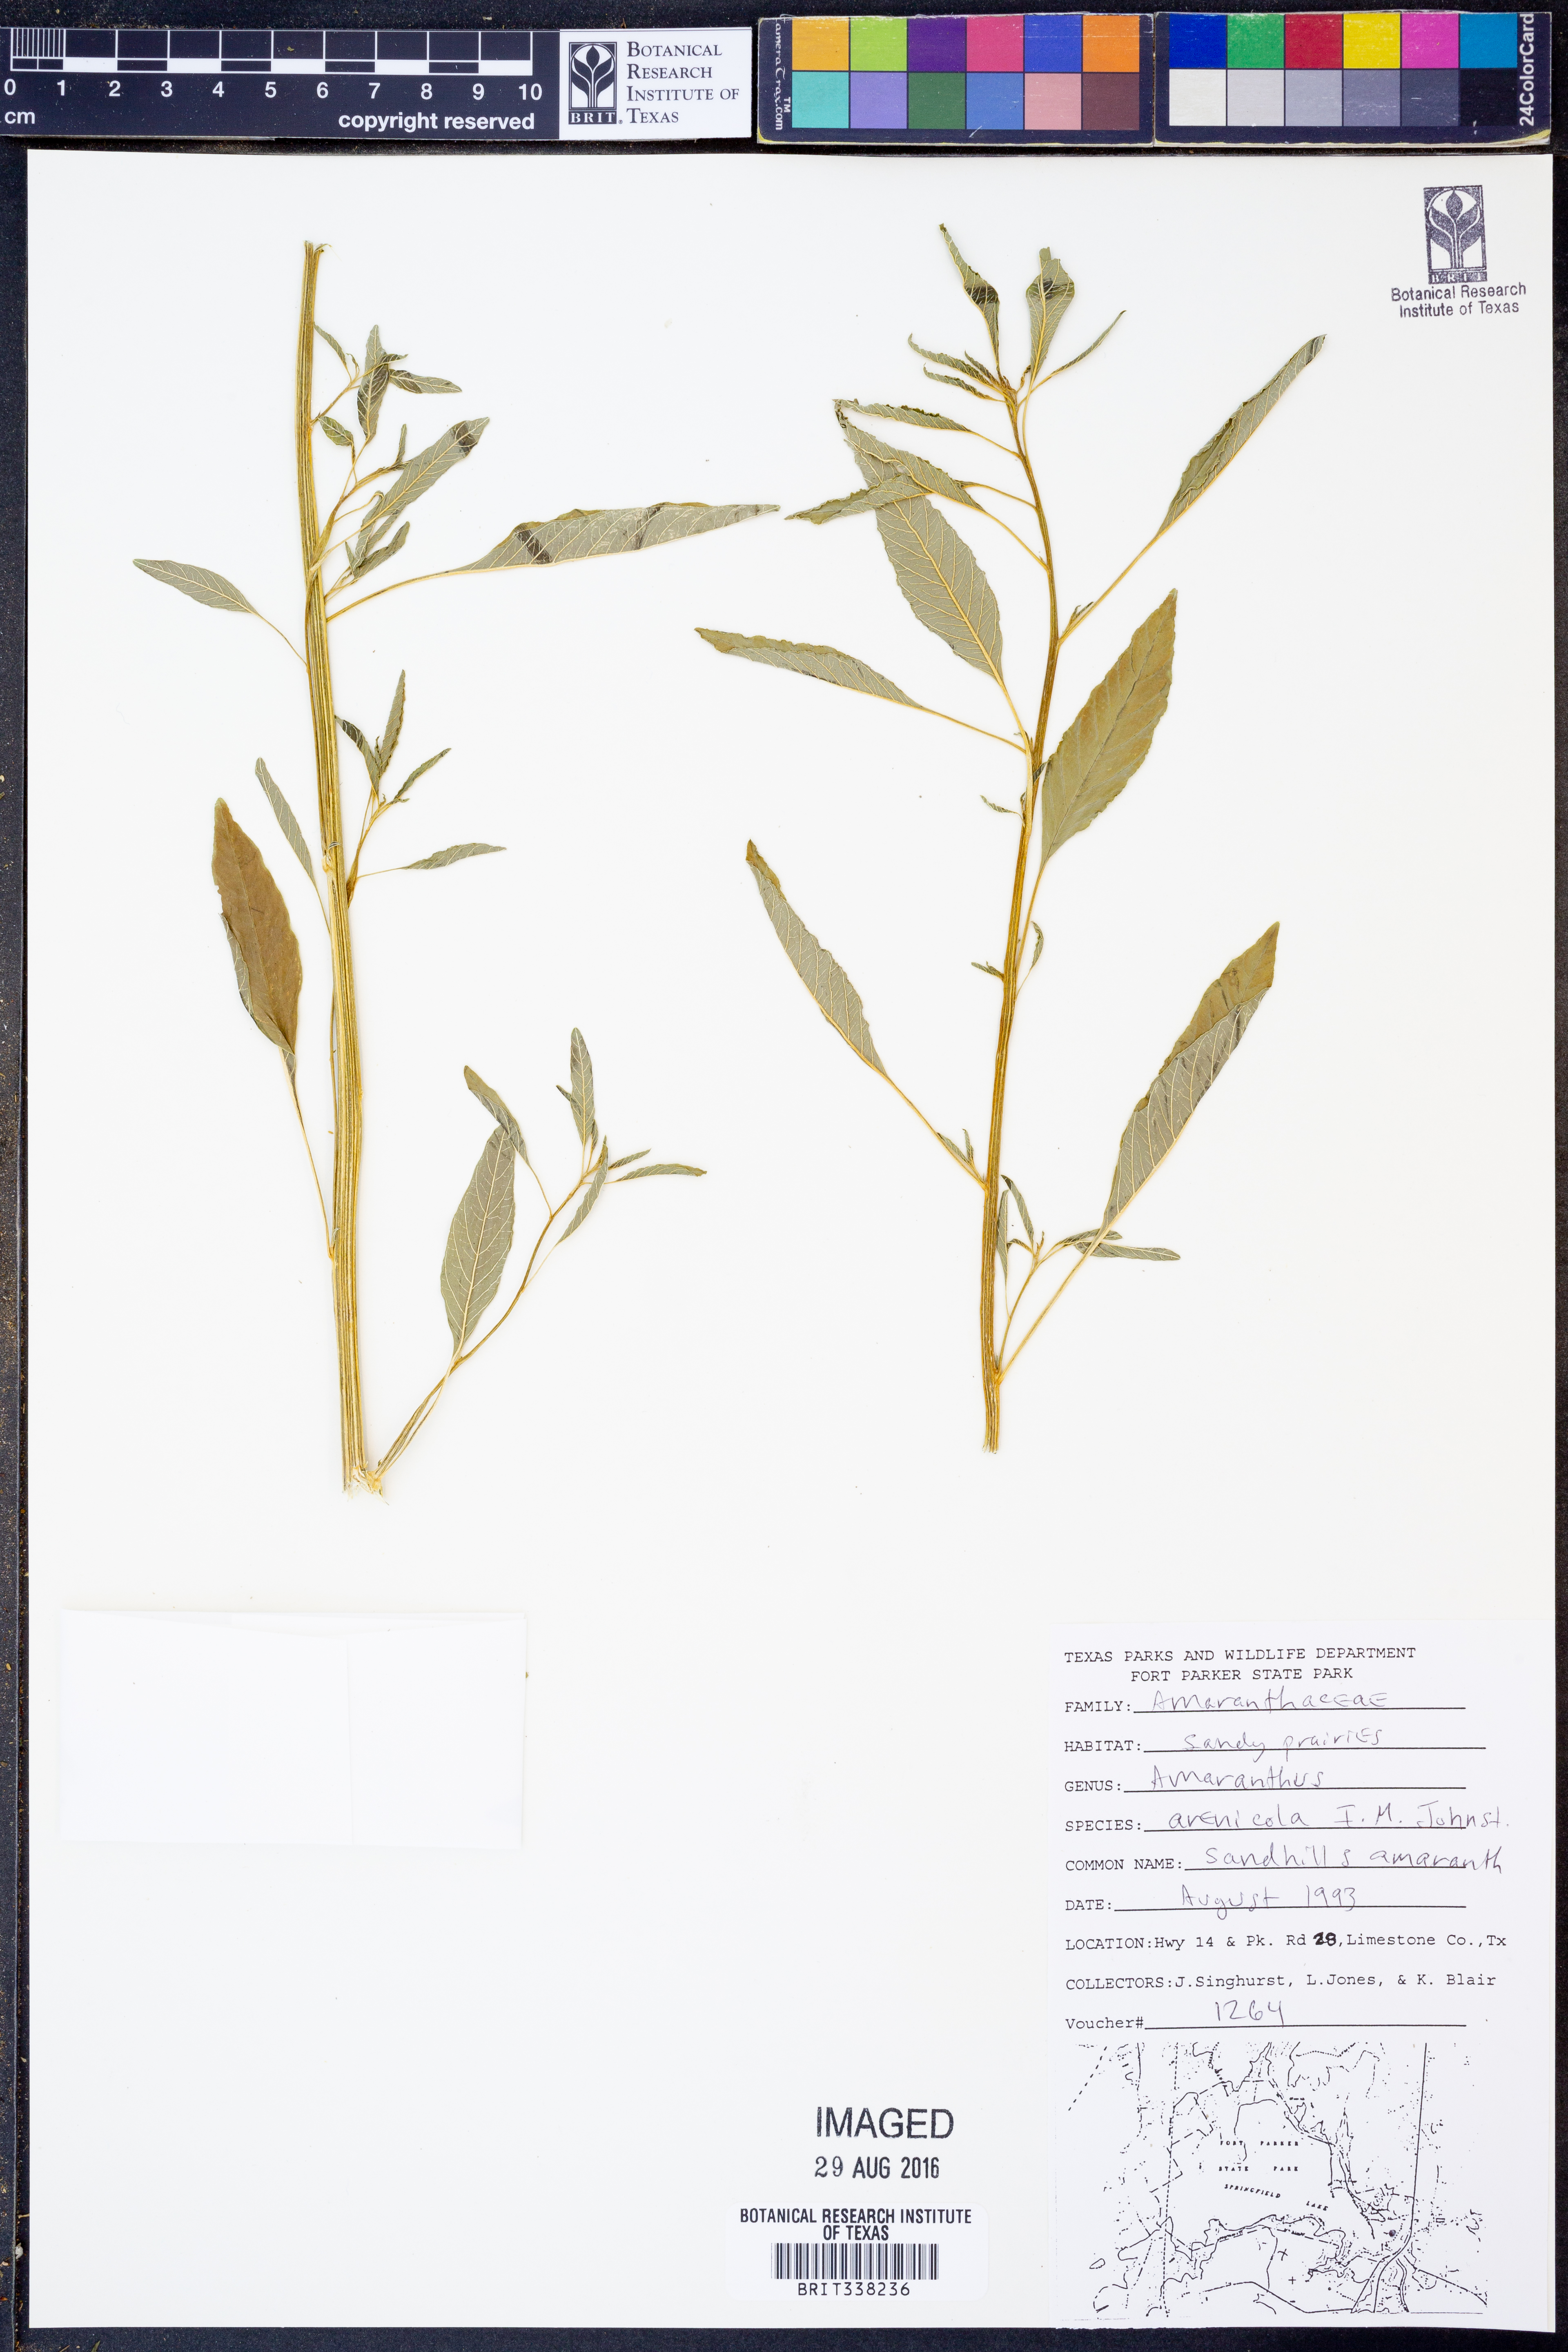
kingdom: Plantae
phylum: Tracheophyta
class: Magnoliopsida
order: Caryophyllales
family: Amaranthaceae
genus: Amaranthus
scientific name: Amaranthus arenicola
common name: Sandhills amaranth
